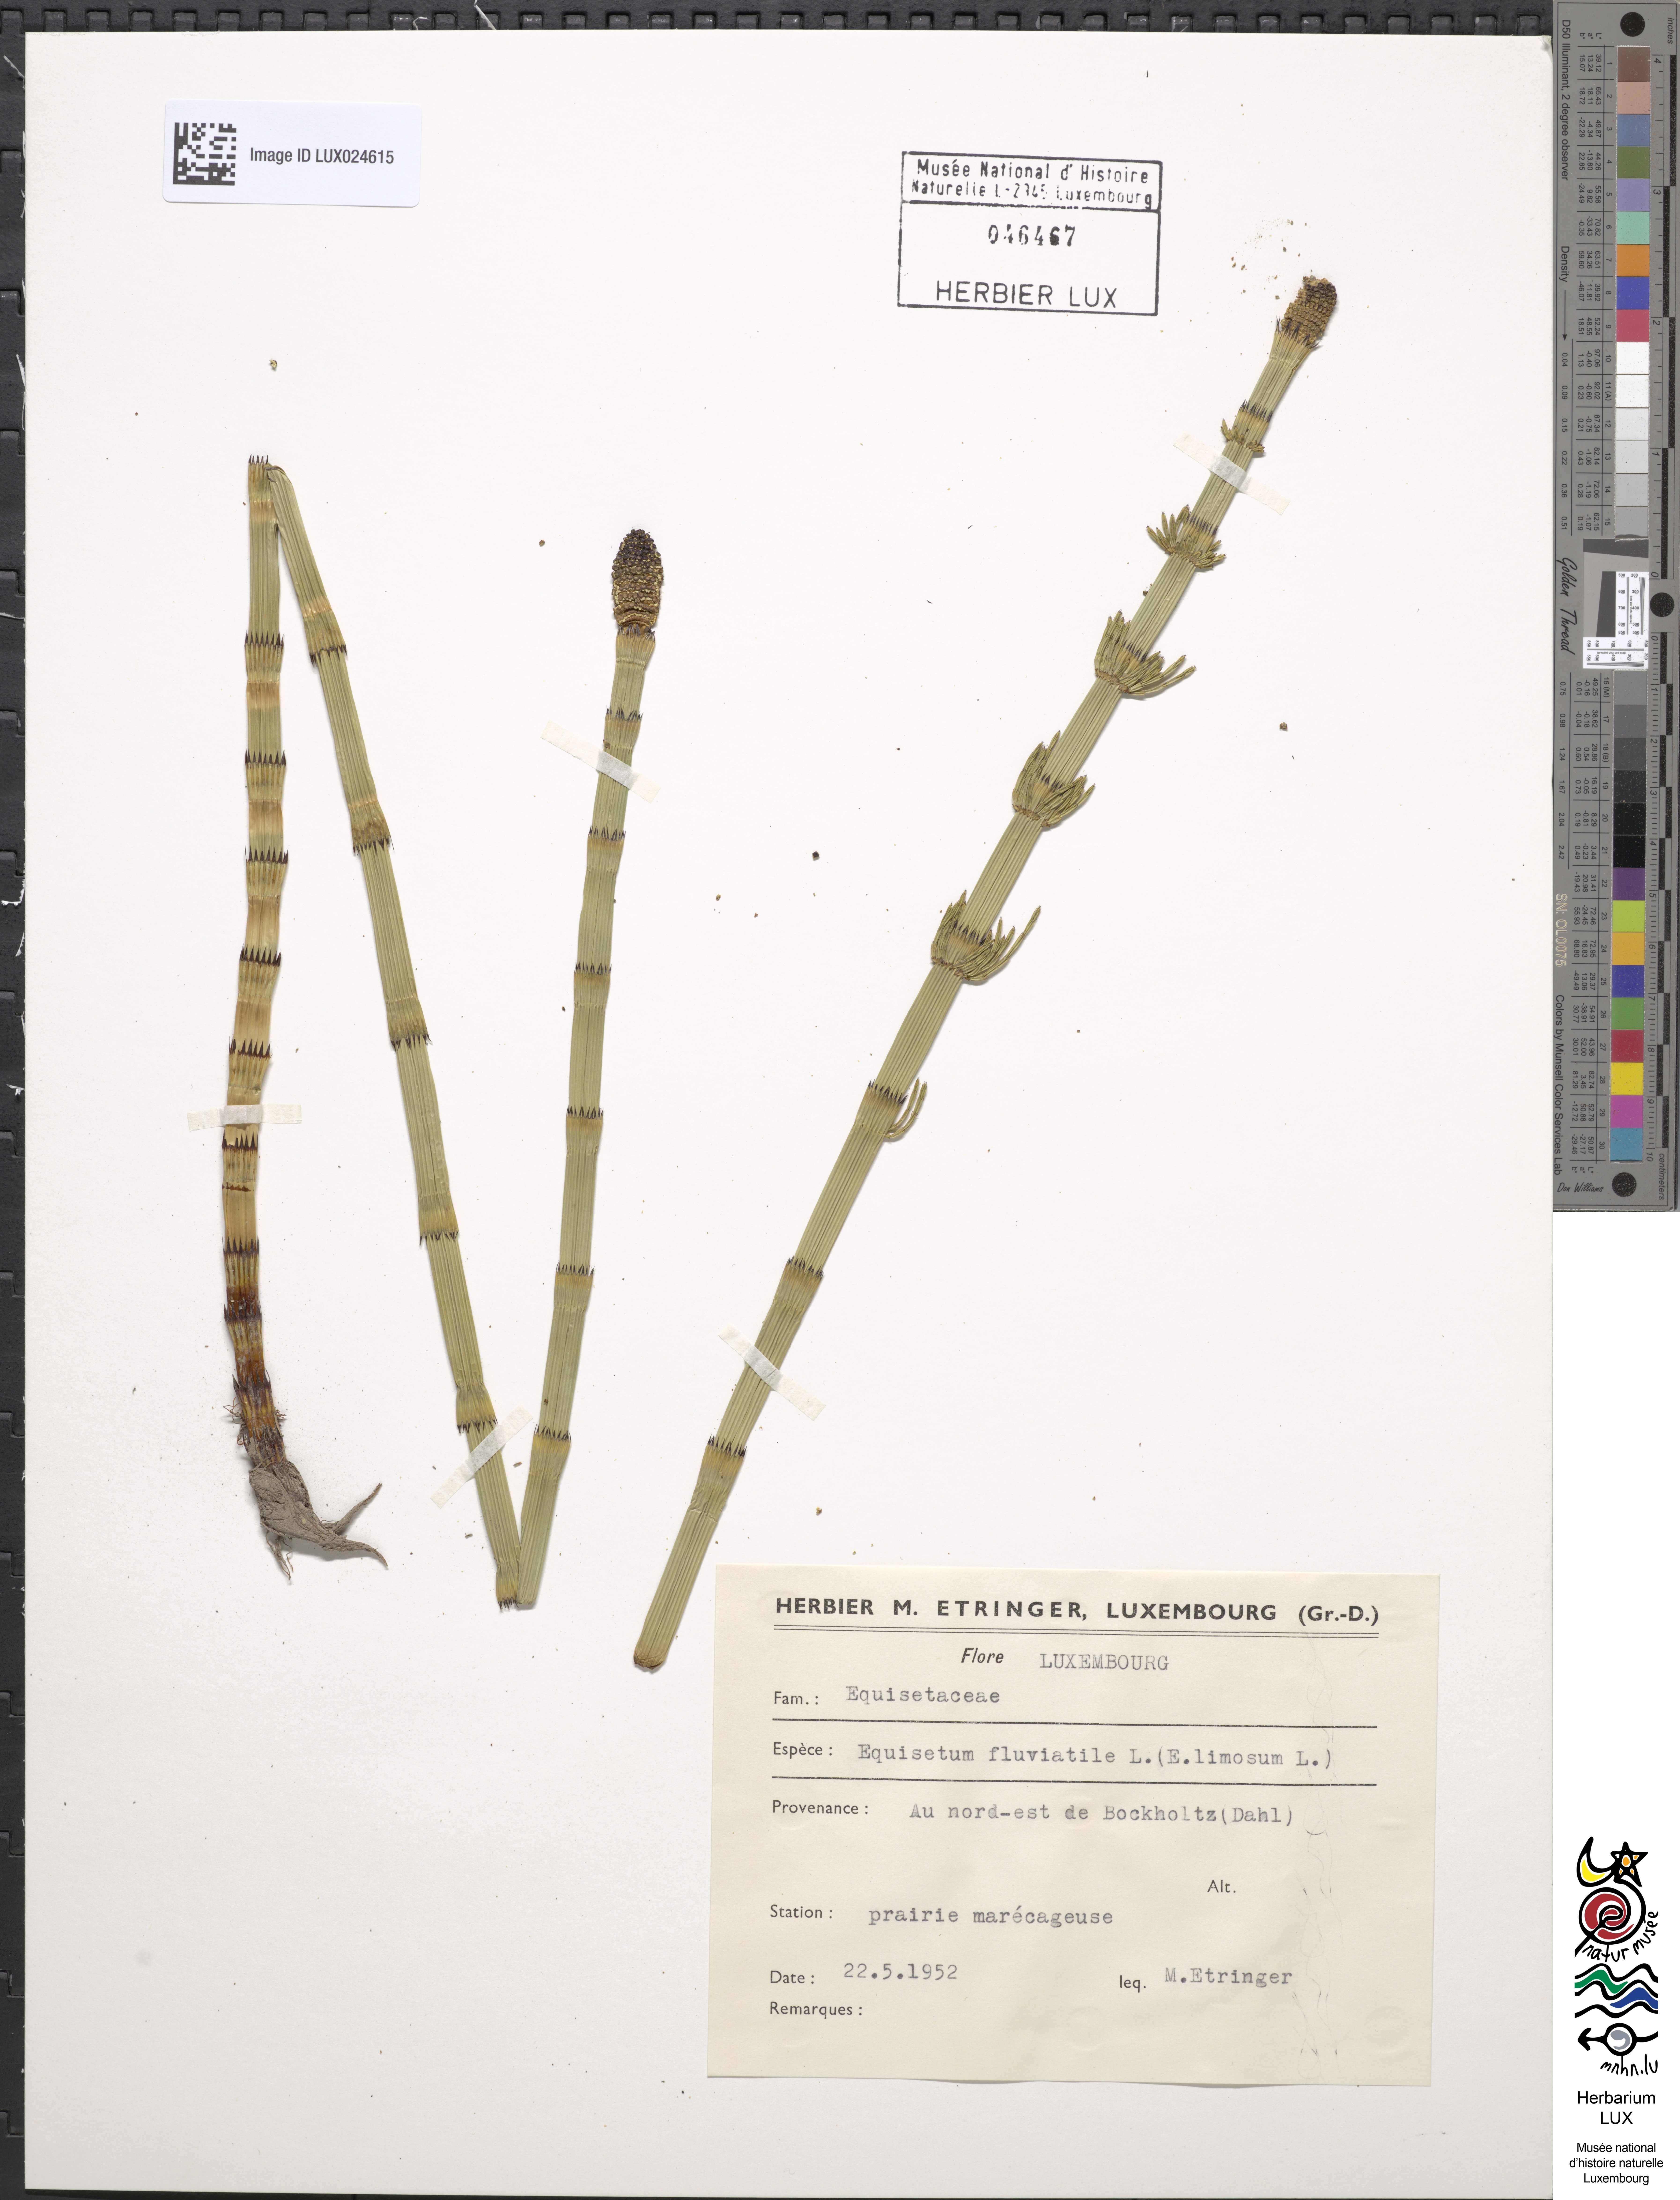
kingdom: Plantae
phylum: Tracheophyta
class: Polypodiopsida
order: Equisetales
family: Equisetaceae
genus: Equisetum
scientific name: Equisetum fluviatile
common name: Water horsetail
